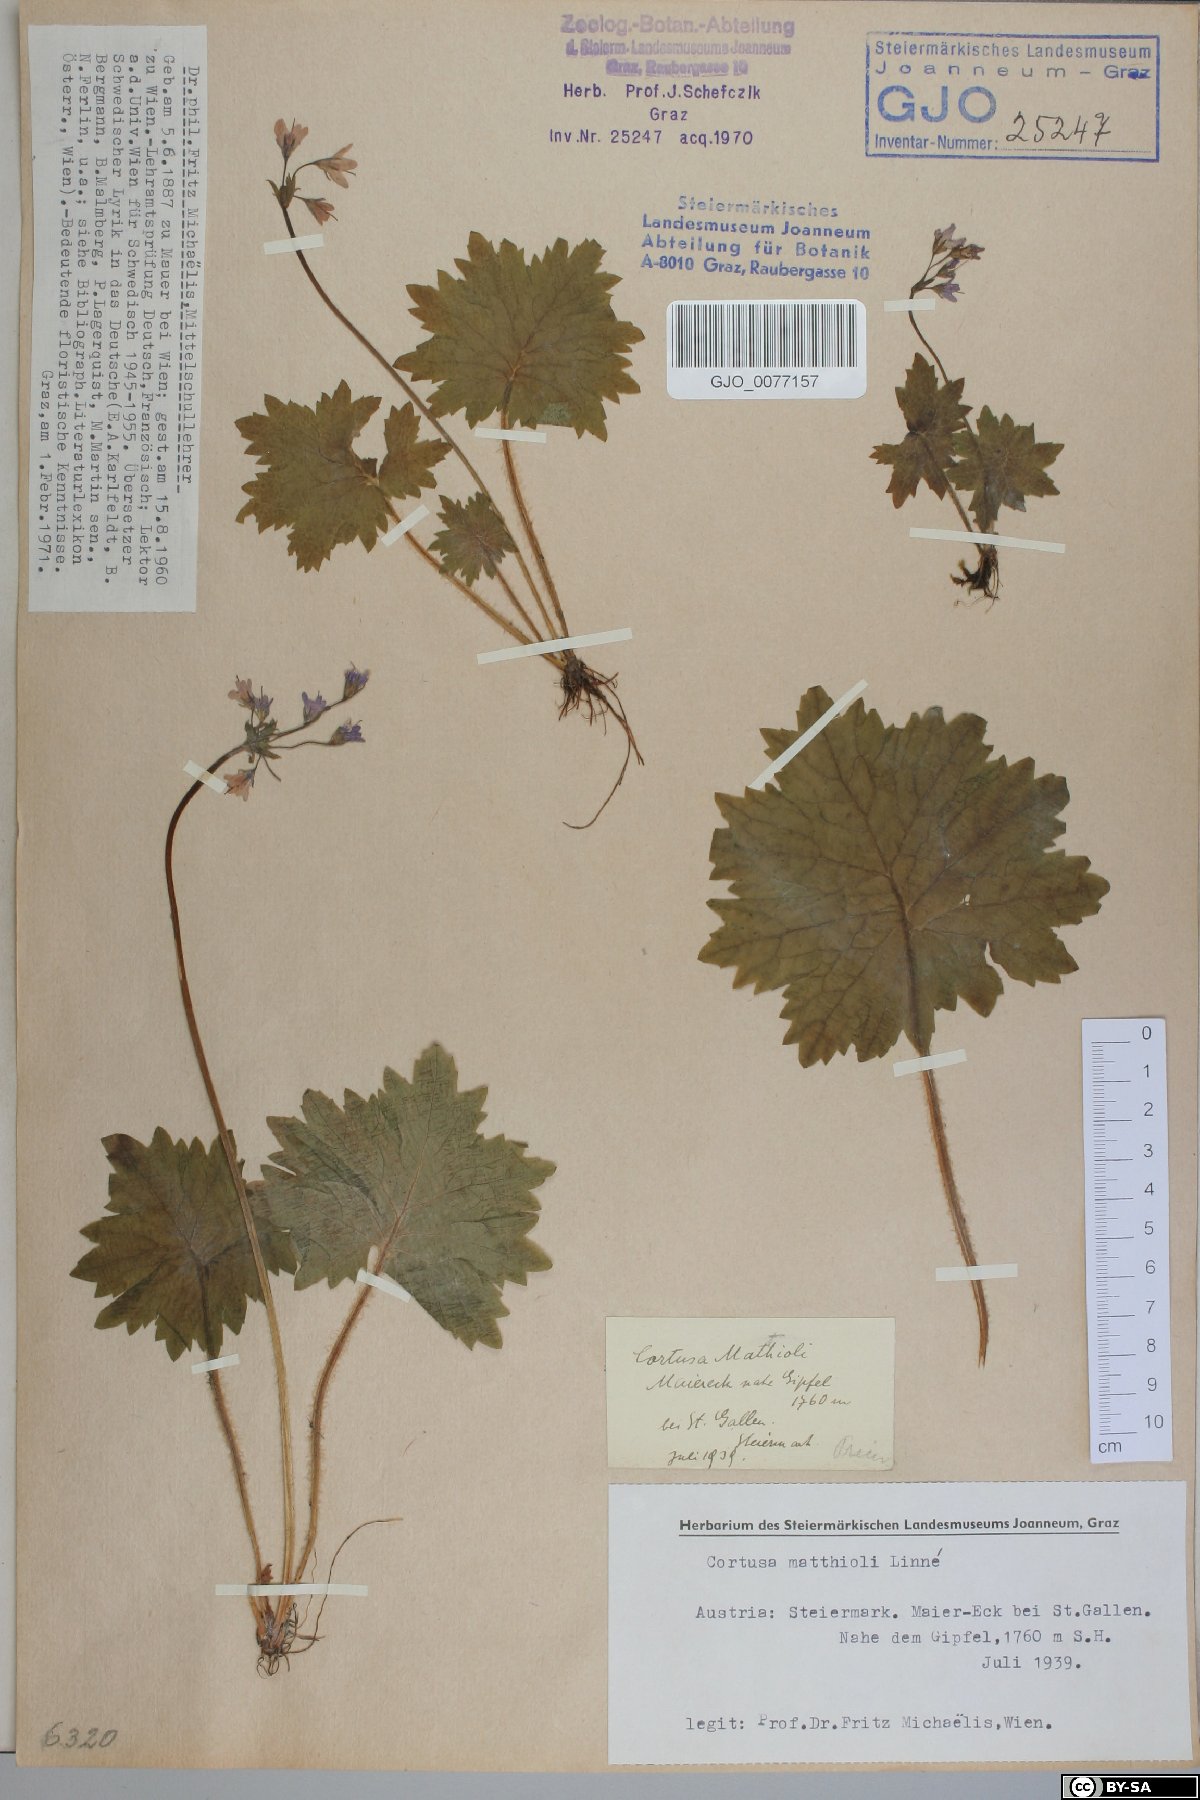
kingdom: Plantae
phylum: Tracheophyta
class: Magnoliopsida
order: Ericales
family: Primulaceae
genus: Primula
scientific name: Primula matthioli
